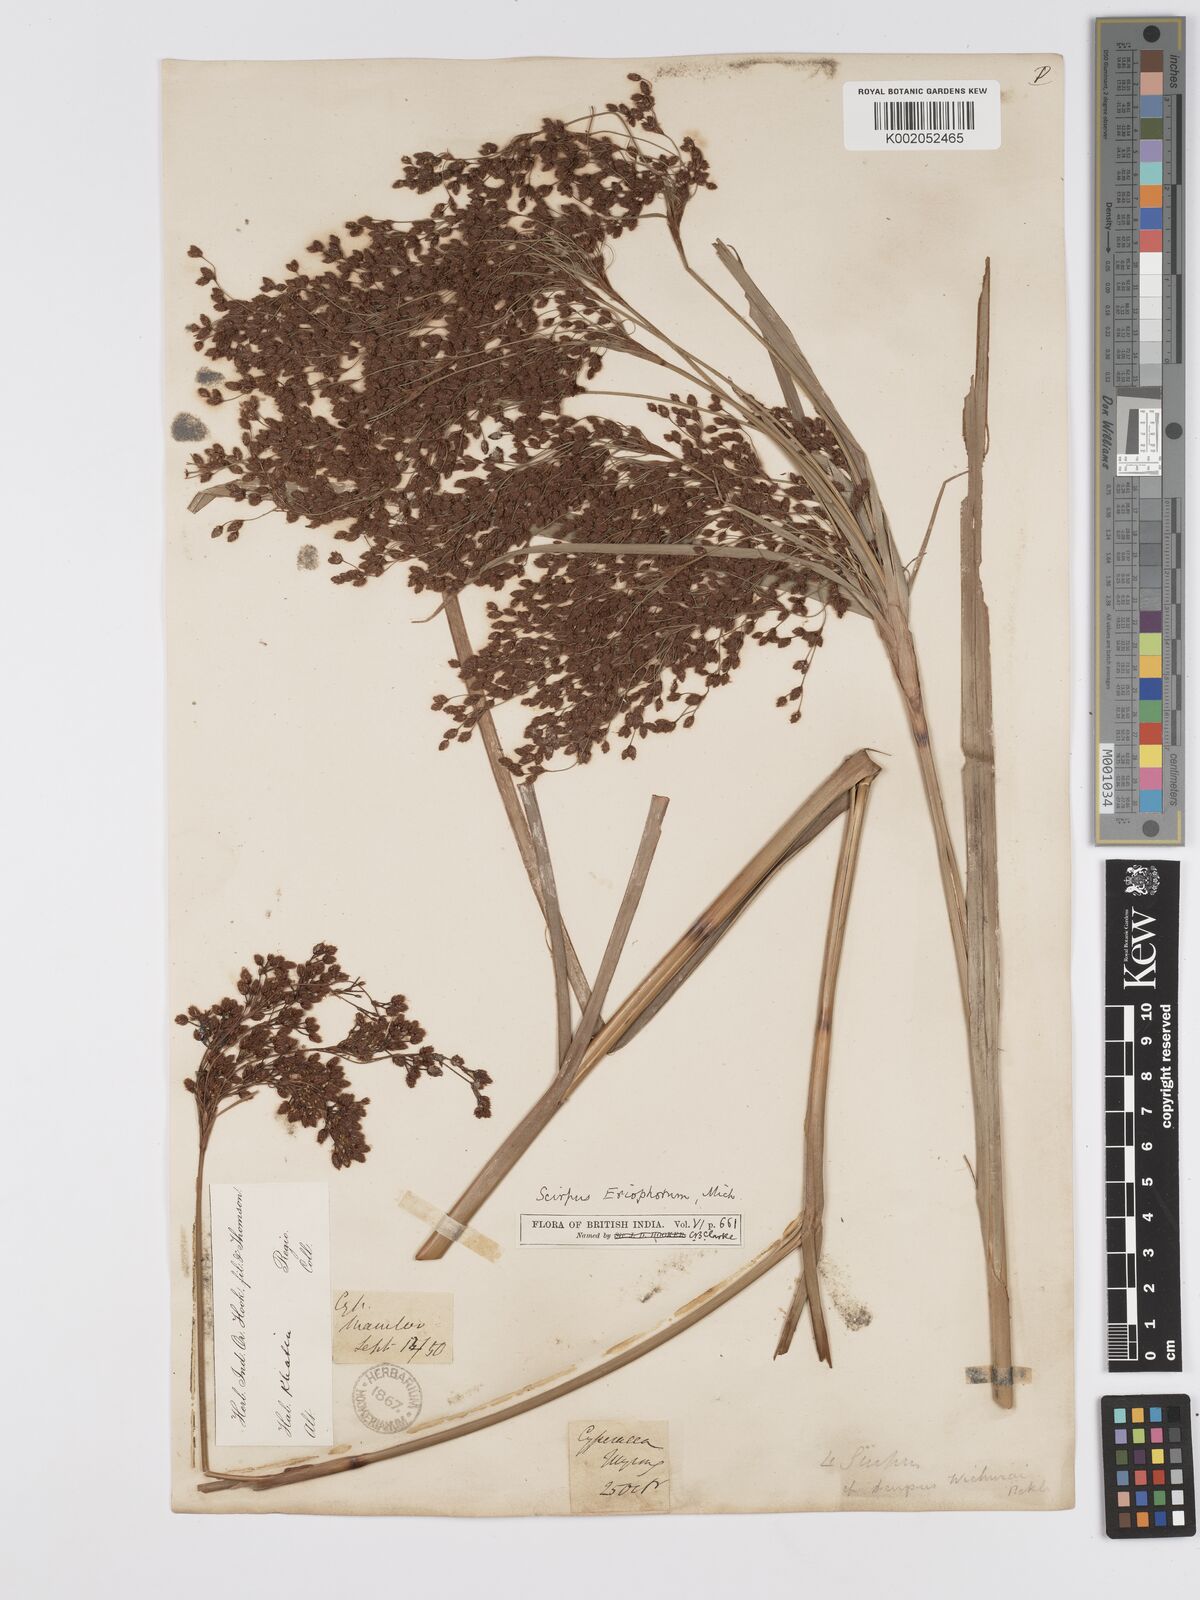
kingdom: Plantae
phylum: Tracheophyta
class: Liliopsida
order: Poales
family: Cyperaceae
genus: Scirpus
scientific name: Scirpus cyperinus
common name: Black-sheathed bulrush
